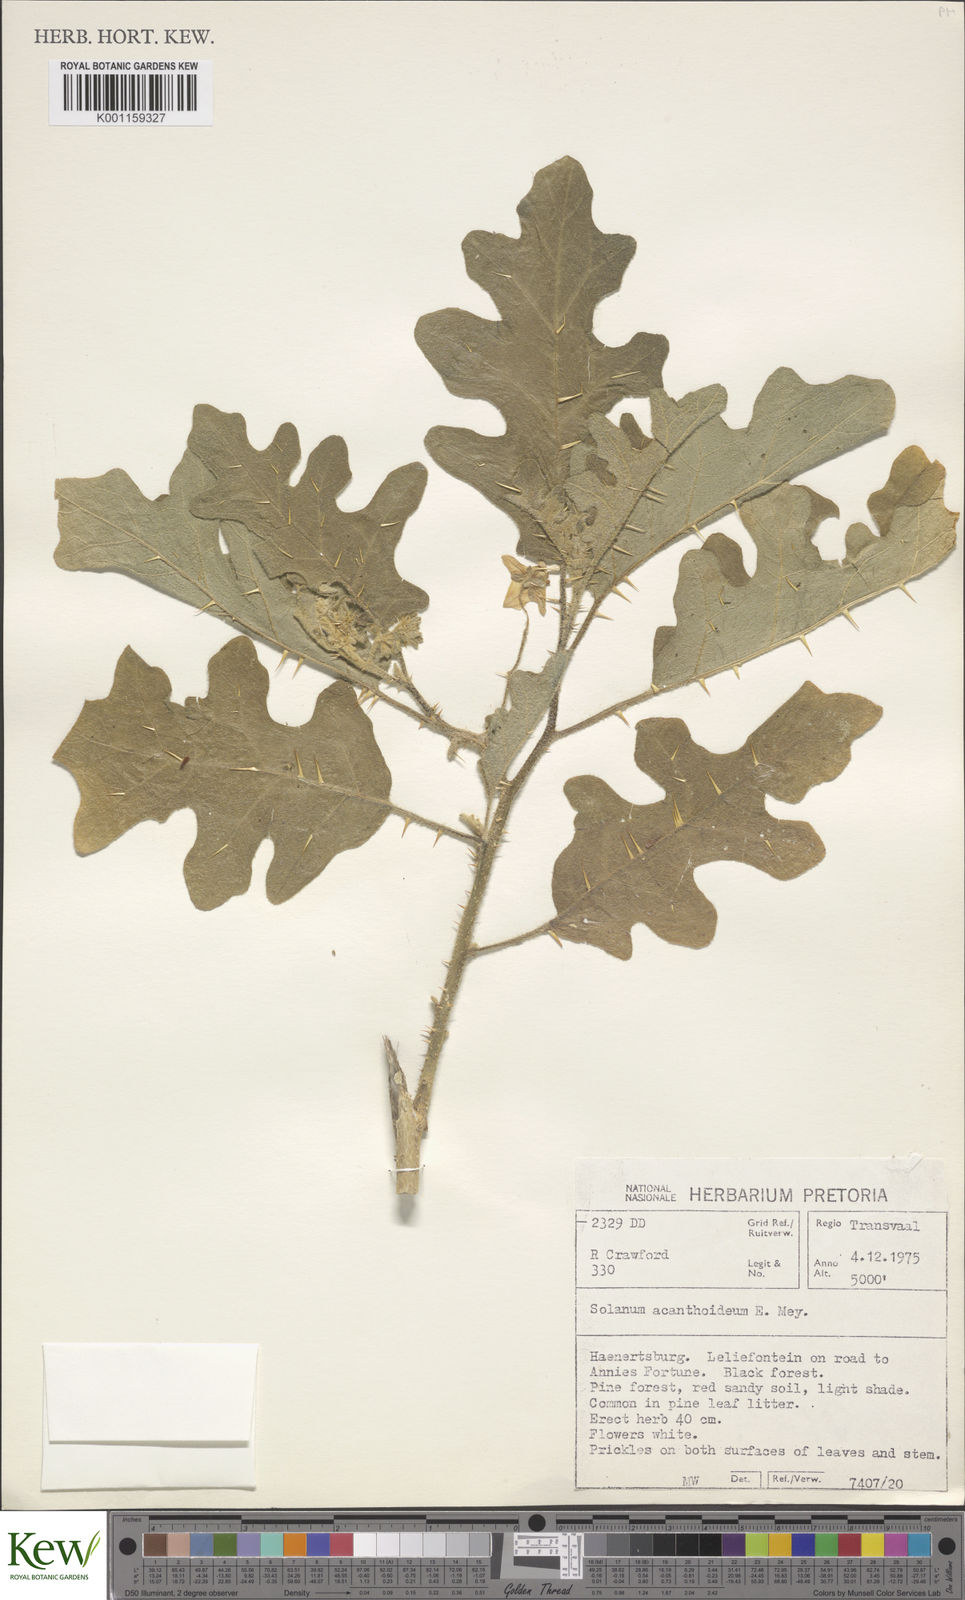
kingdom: Plantae
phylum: Tracheophyta
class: Magnoliopsida
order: Solanales
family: Solanaceae
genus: Solanum
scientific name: Solanum linnaeanum
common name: Nightshade
